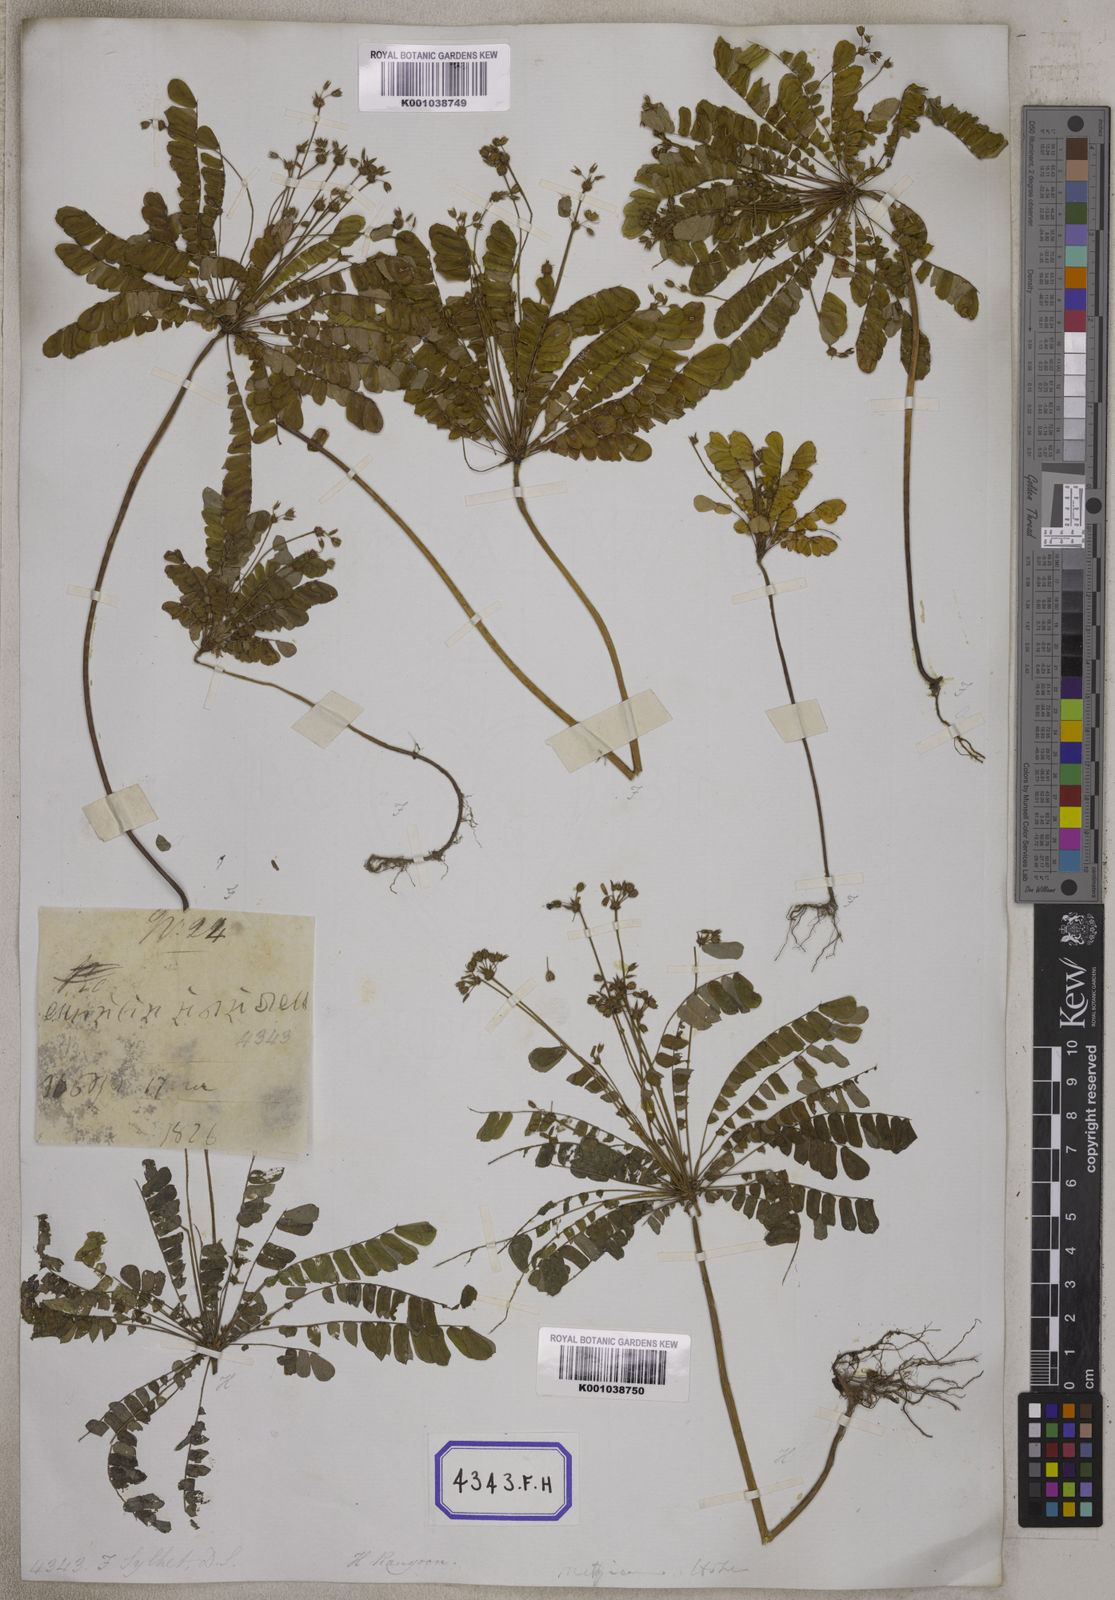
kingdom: Plantae
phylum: Tracheophyta
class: Magnoliopsida
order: Oxalidales
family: Oxalidaceae
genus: Biophytum
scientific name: Biophytum sensitivum
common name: Lifeplant
